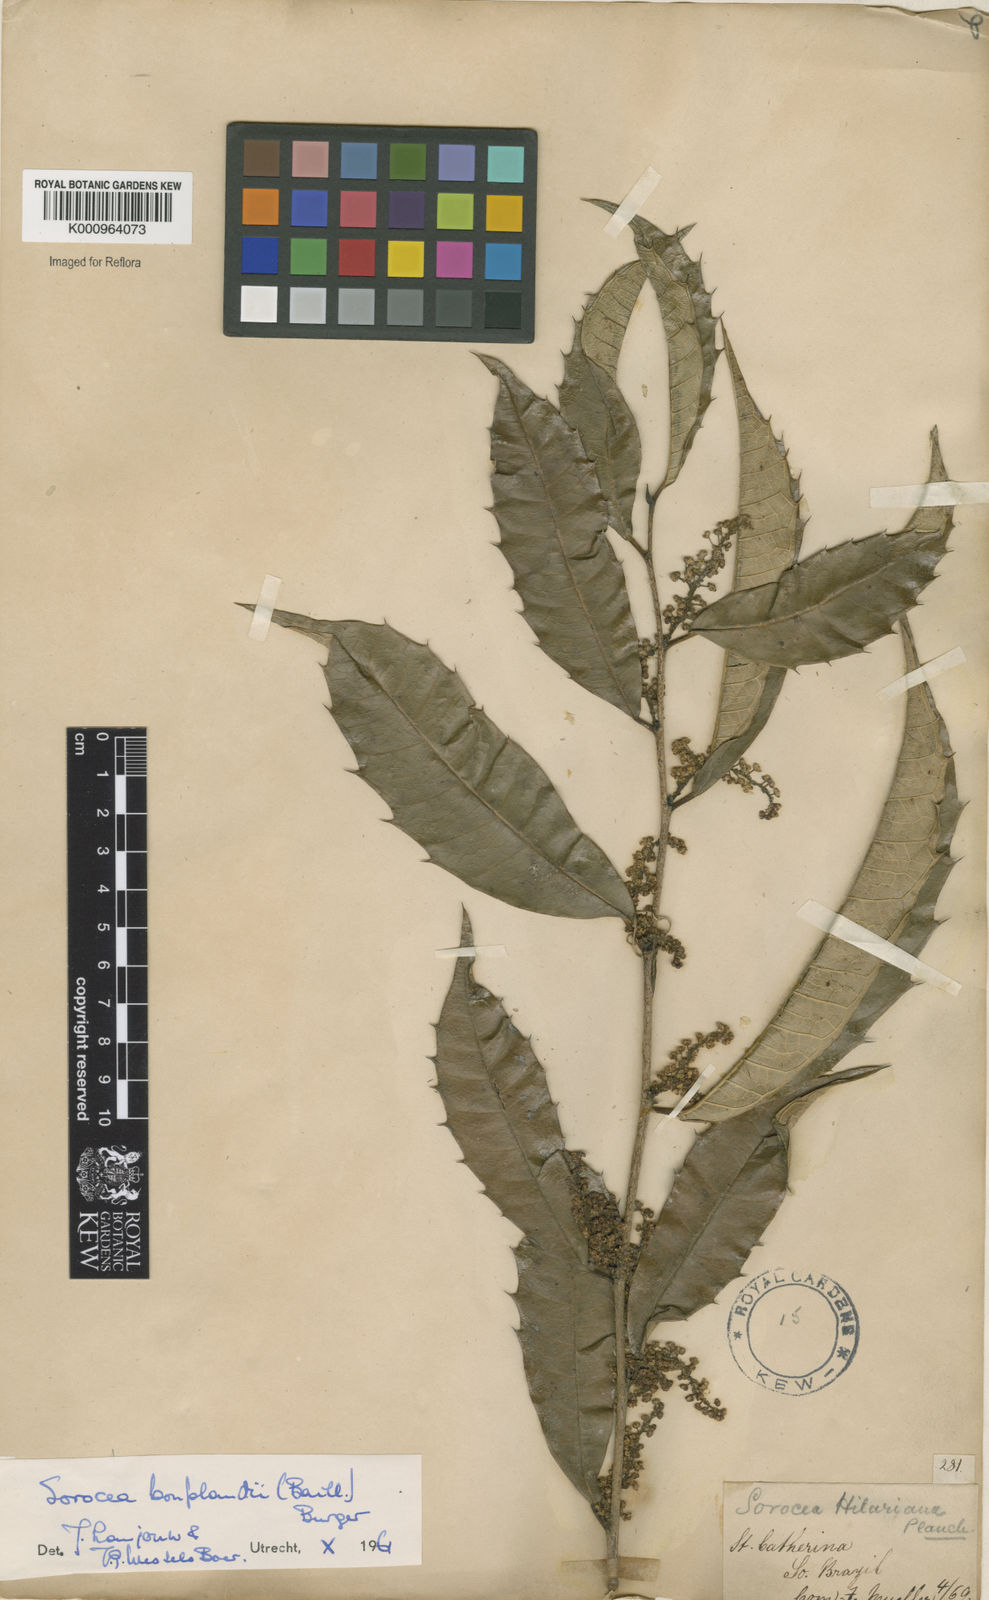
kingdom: Plantae
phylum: Tracheophyta
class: Magnoliopsida
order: Rosales
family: Moraceae
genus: Sorocea
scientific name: Sorocea
